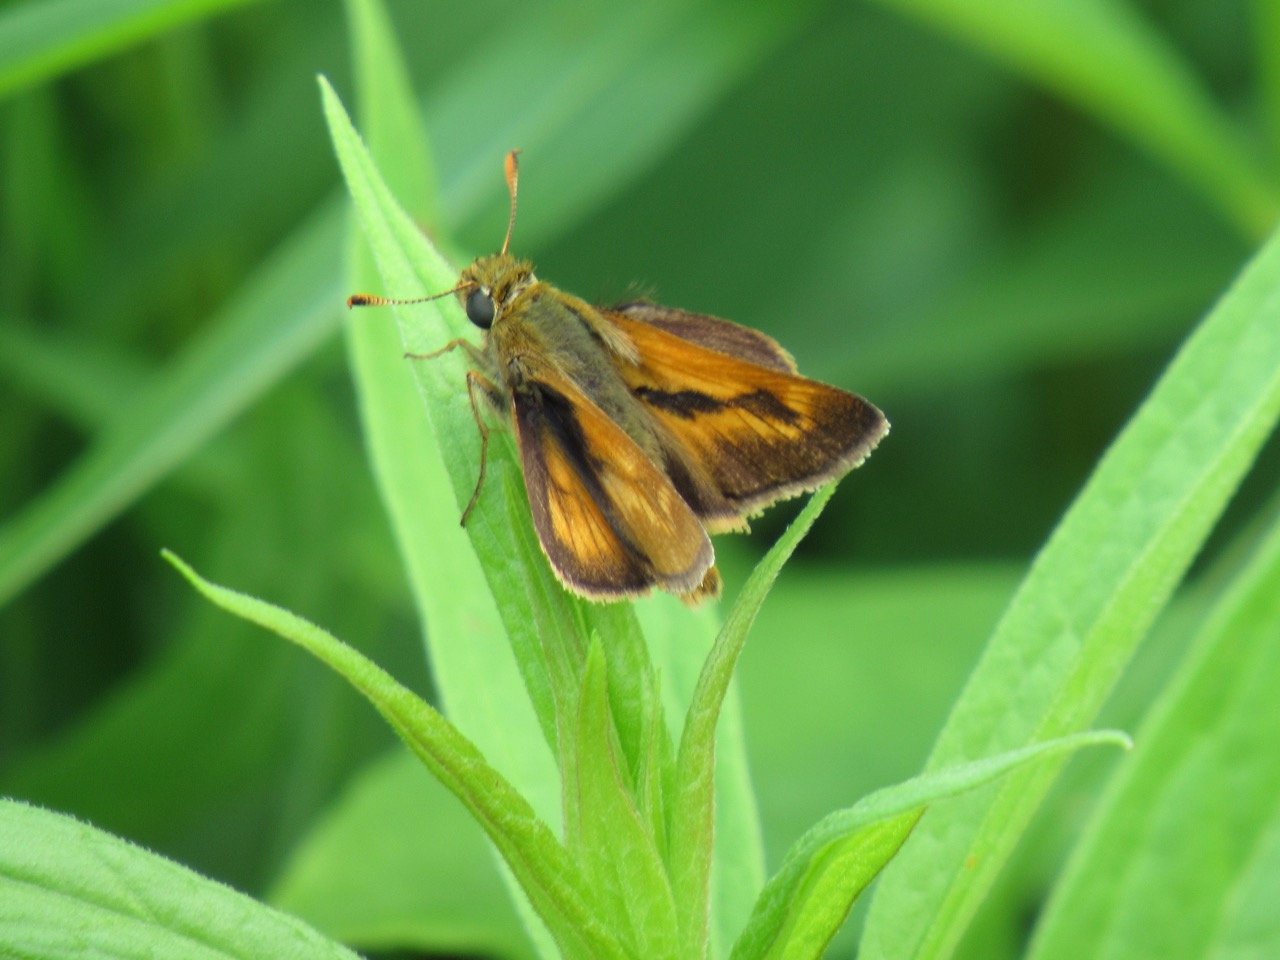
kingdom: Animalia
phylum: Arthropoda
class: Insecta
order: Lepidoptera
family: Hesperiidae
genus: Polites
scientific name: Polites
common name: Long Dash Skipper
